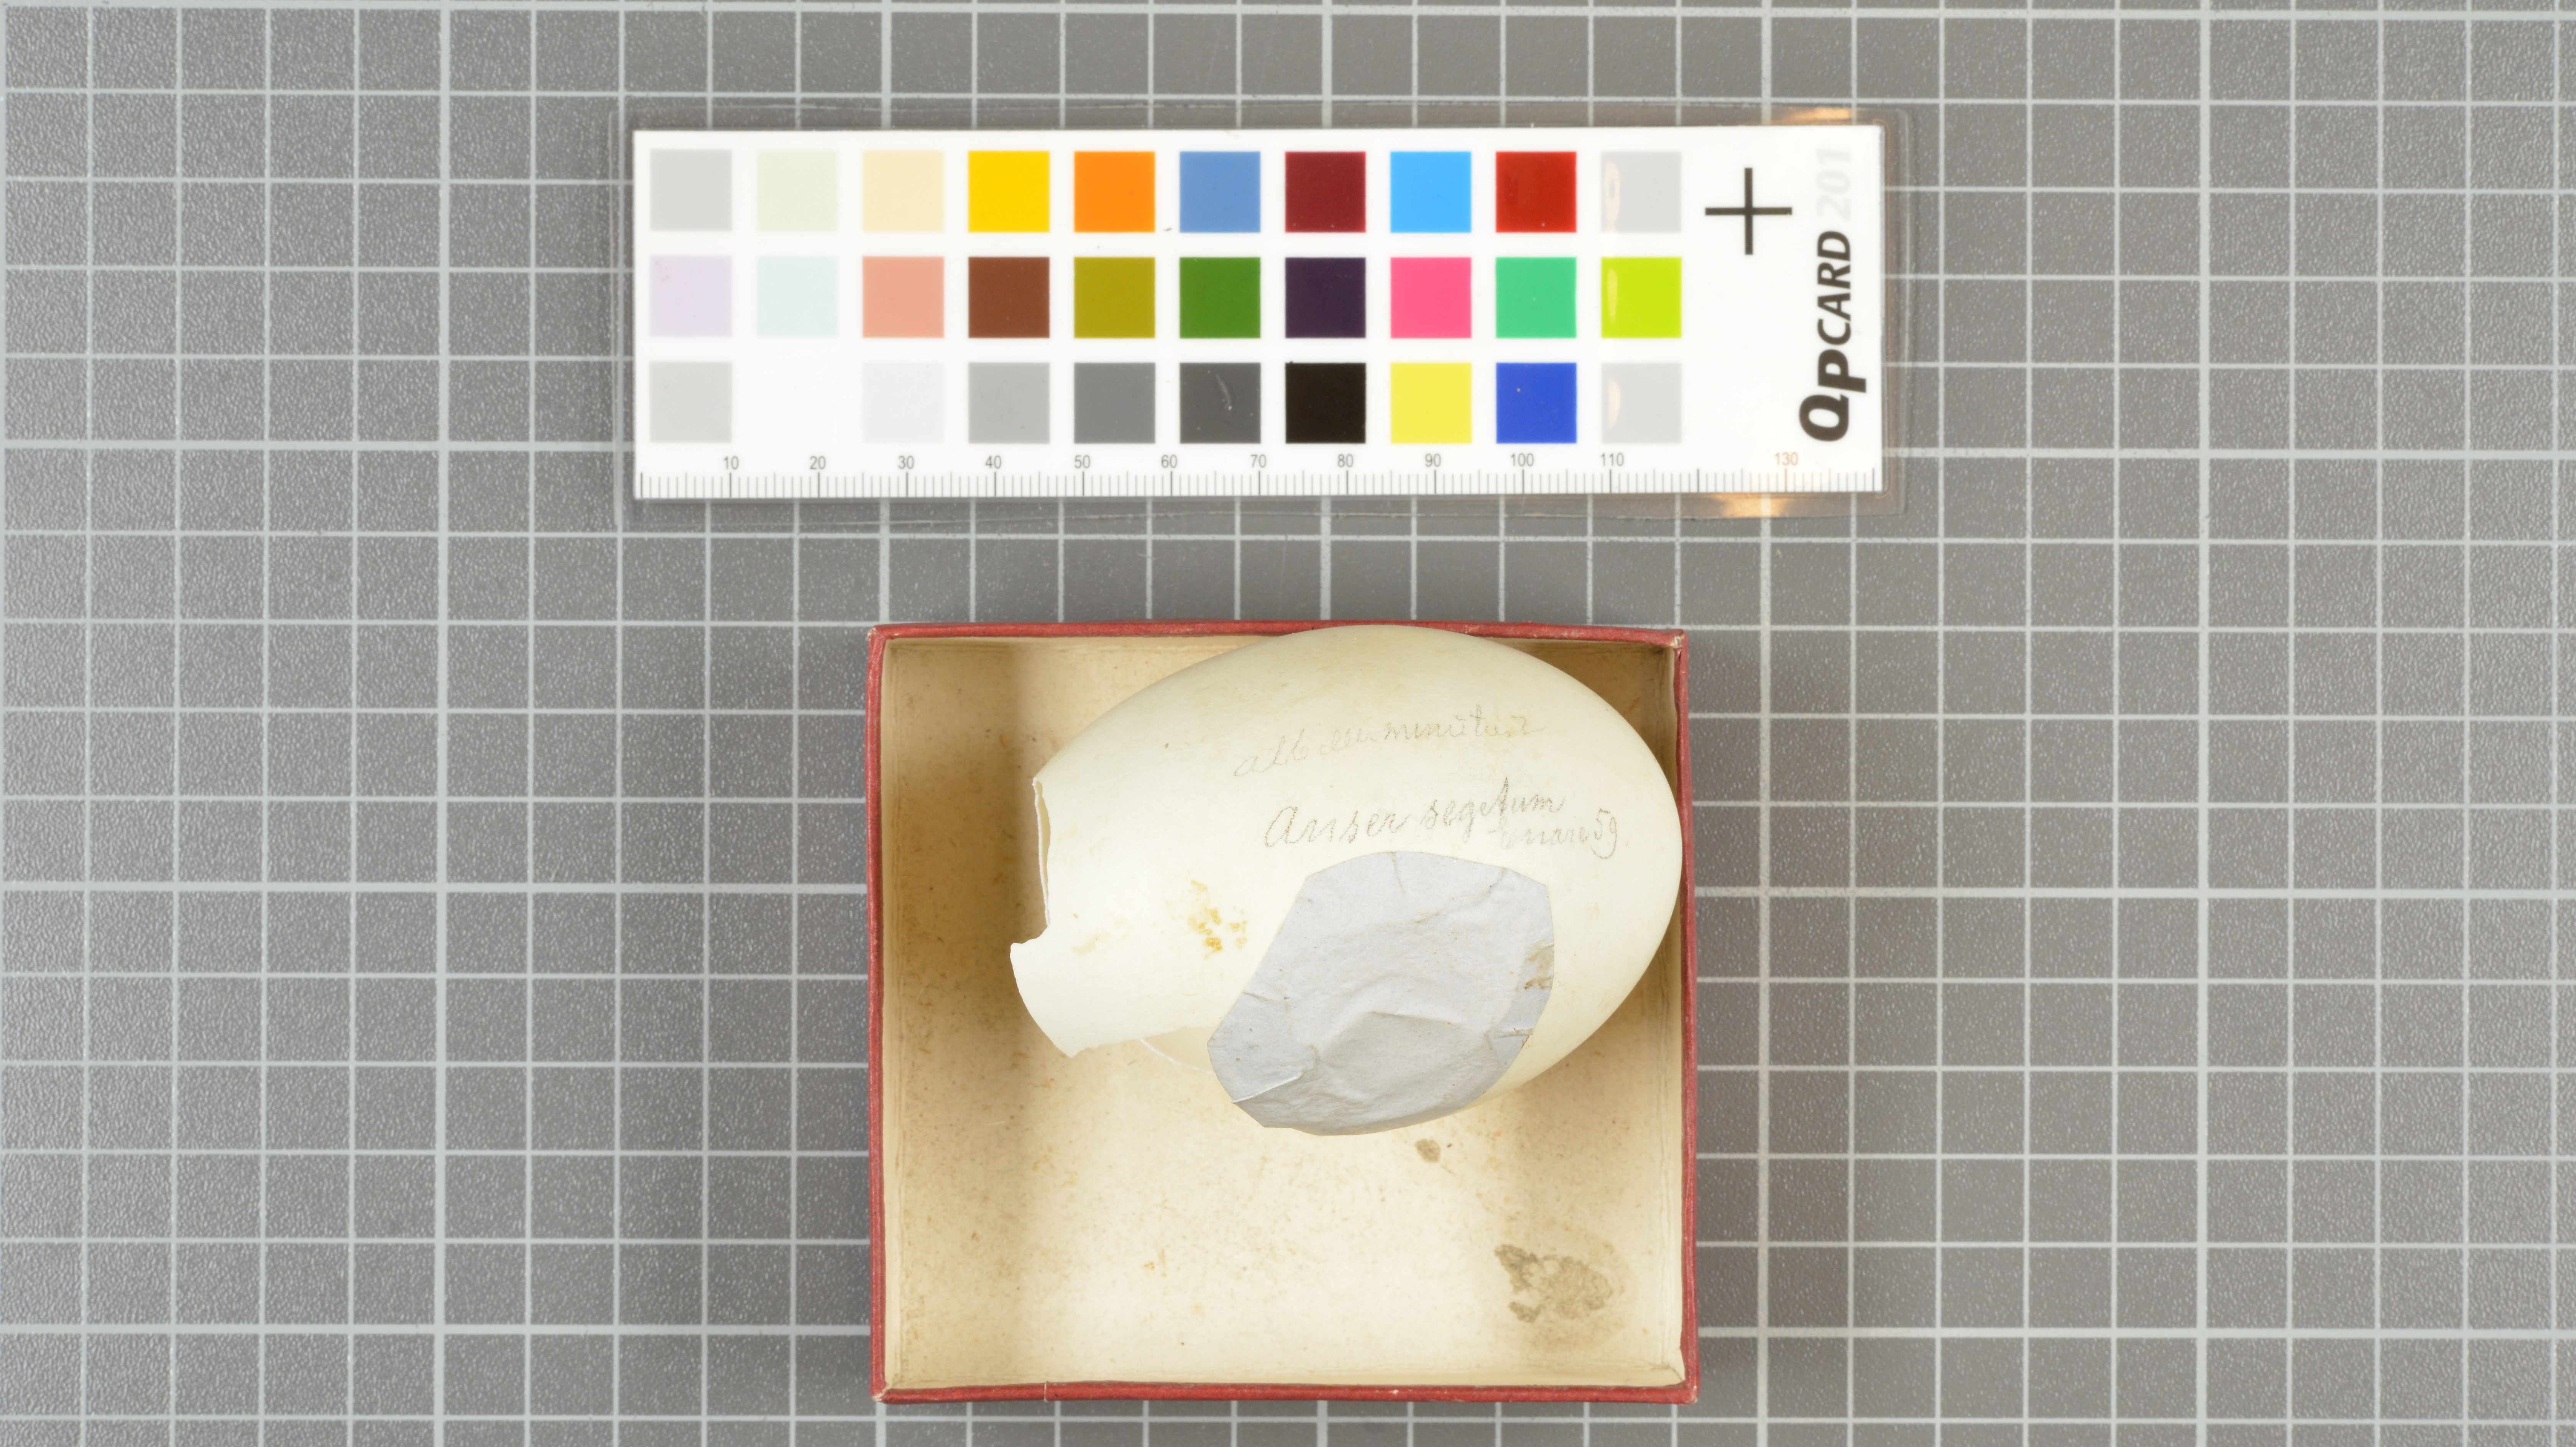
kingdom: Animalia
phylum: Chordata
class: Aves
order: Anseriformes
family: Anatidae
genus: Anser
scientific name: Anser serrirostris
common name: Tundra bean goose
